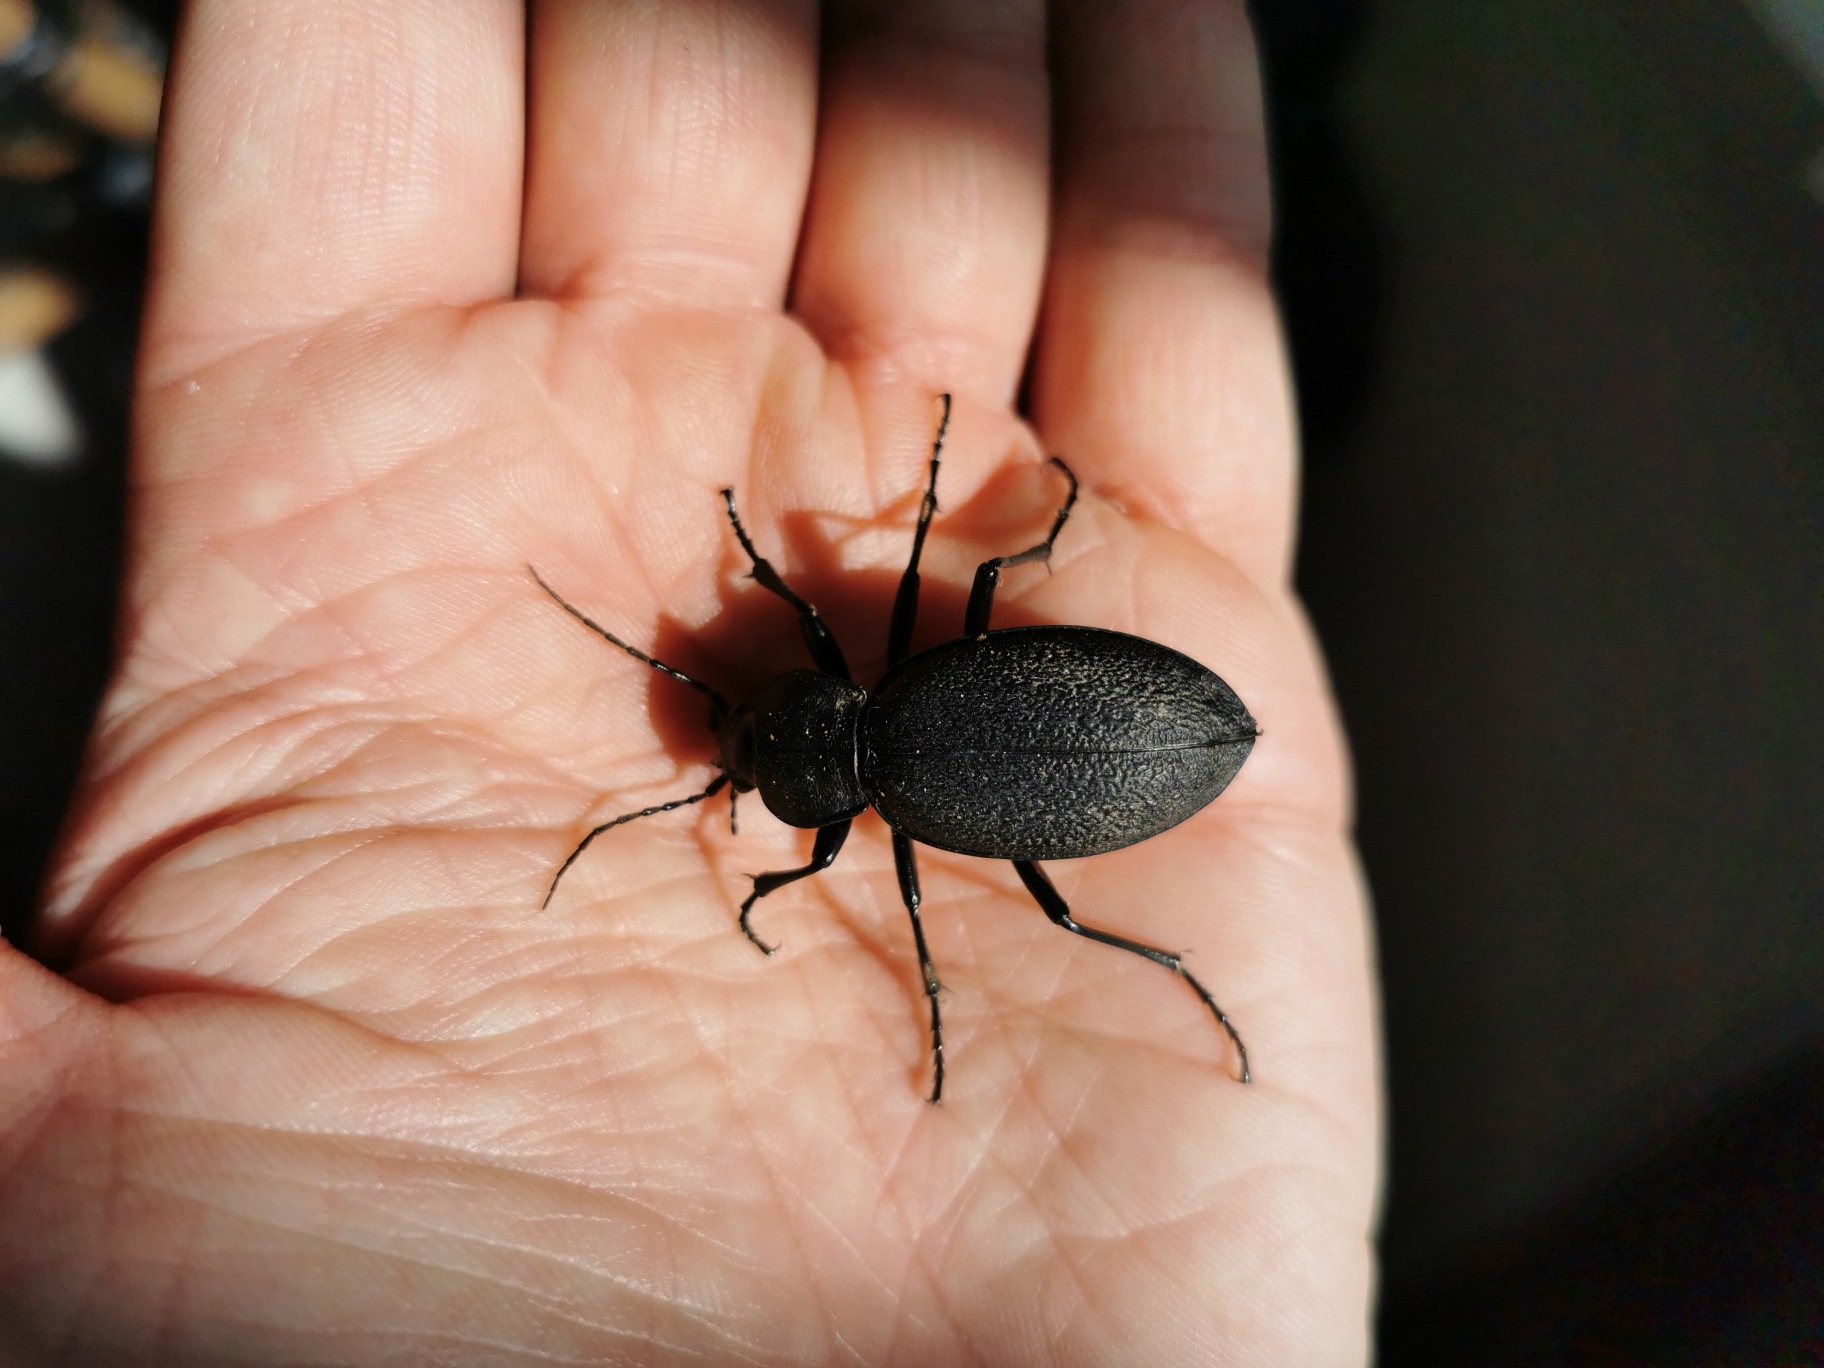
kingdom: Animalia
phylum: Arthropoda
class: Insecta
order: Coleoptera
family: Carabidae
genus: Carabus
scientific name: Carabus coriaceus
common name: Læderløber
